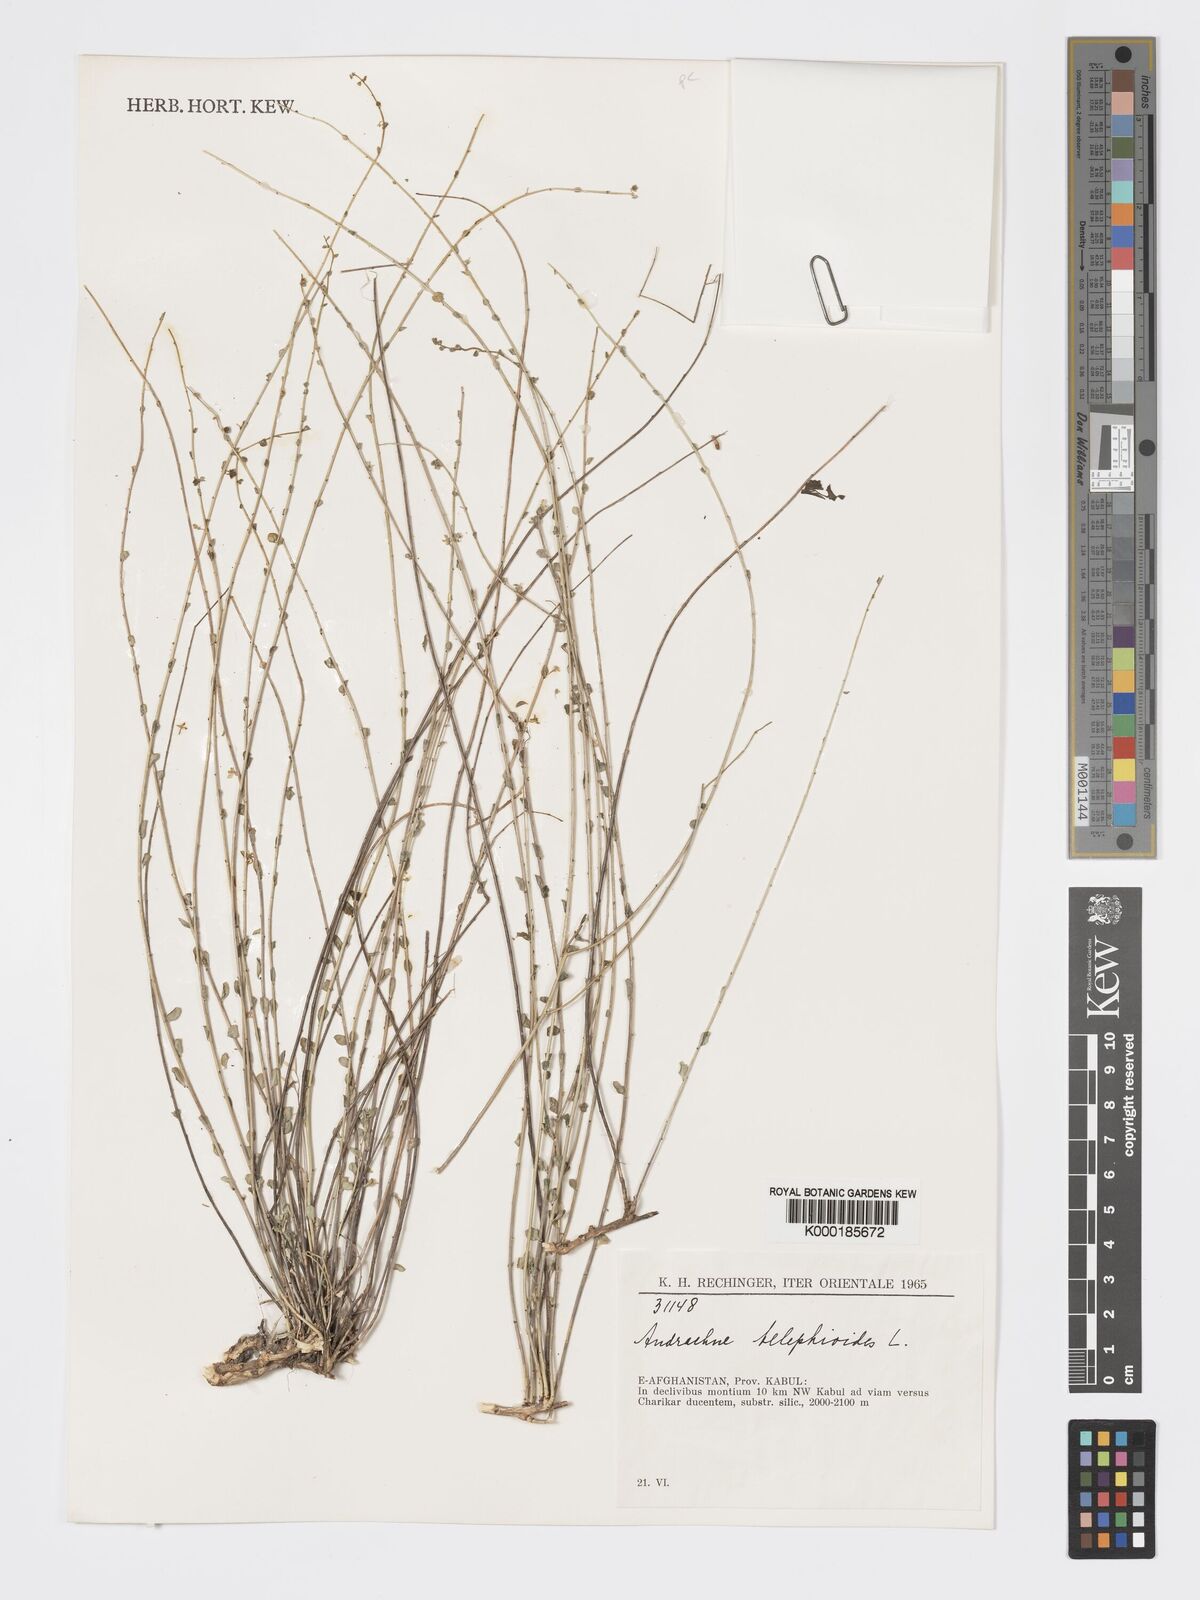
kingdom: Plantae
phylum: Tracheophyta
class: Magnoliopsida
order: Malpighiales
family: Phyllanthaceae
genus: Andrachne
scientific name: Andrachne telephioides
